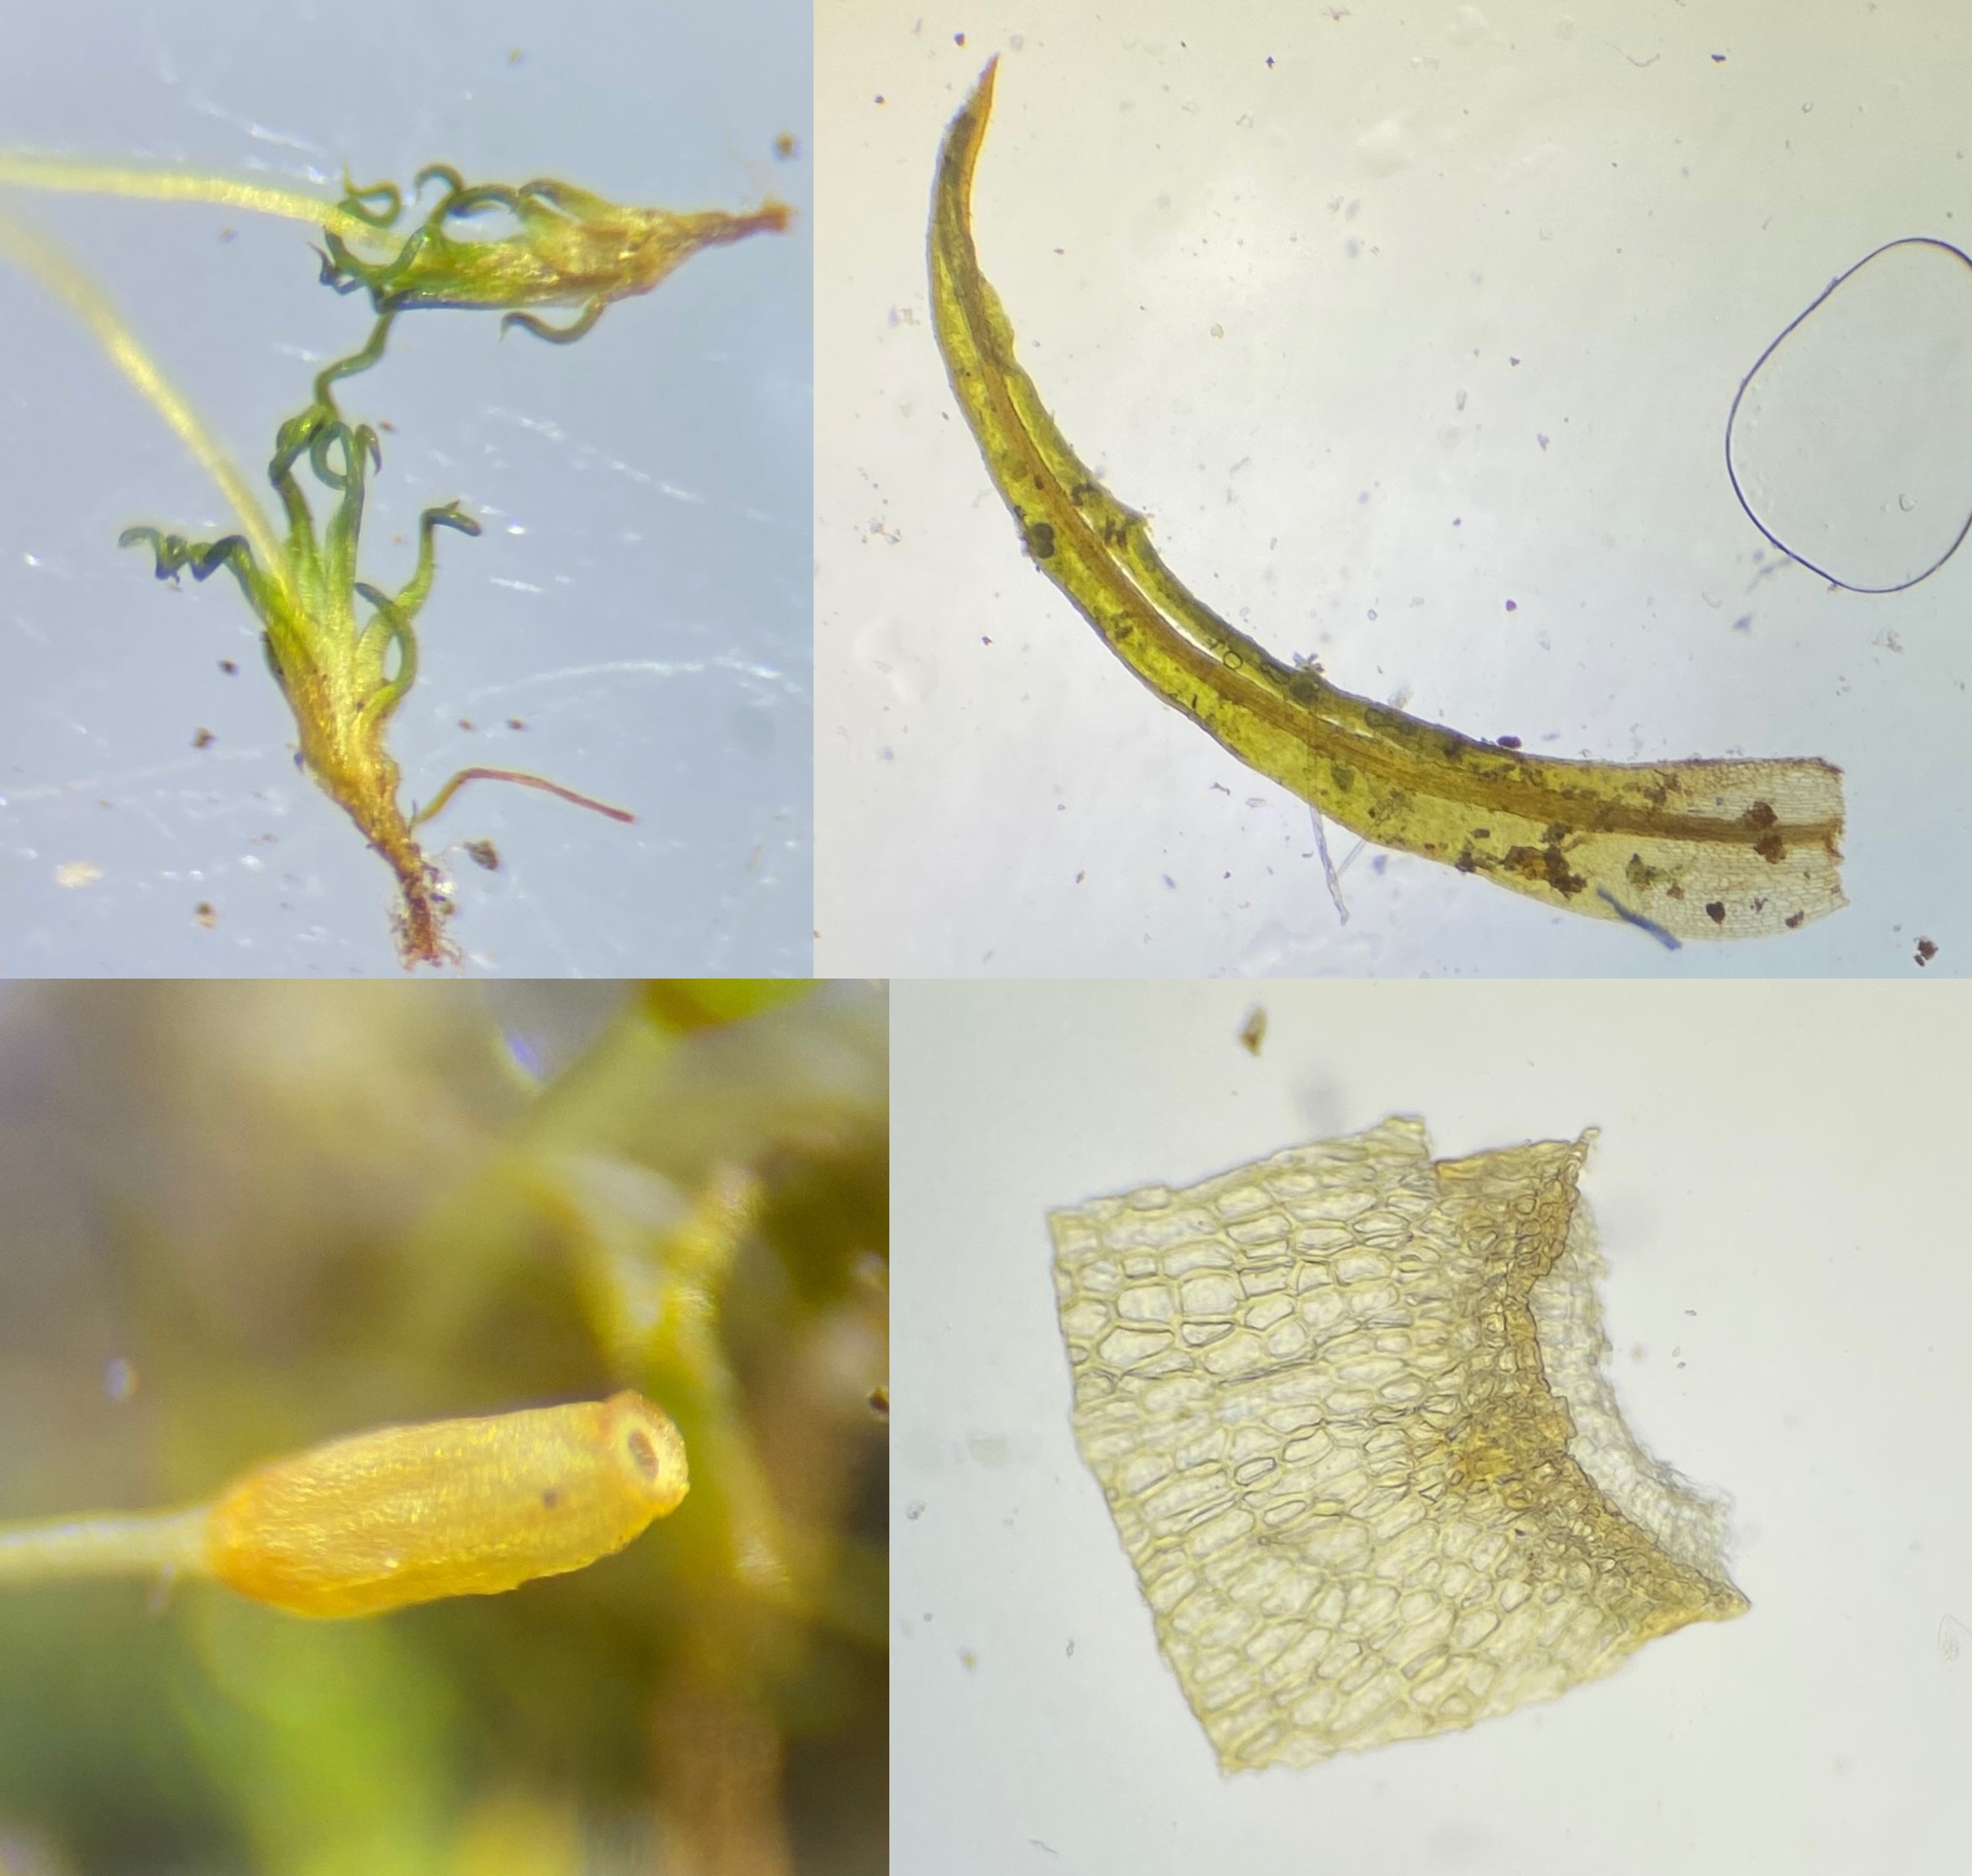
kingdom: Plantae
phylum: Bryophyta
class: Bryopsida
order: Pottiales
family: Pottiaceae
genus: Weissia
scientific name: Weissia brachycarpa
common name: Tykvægget hindemund
